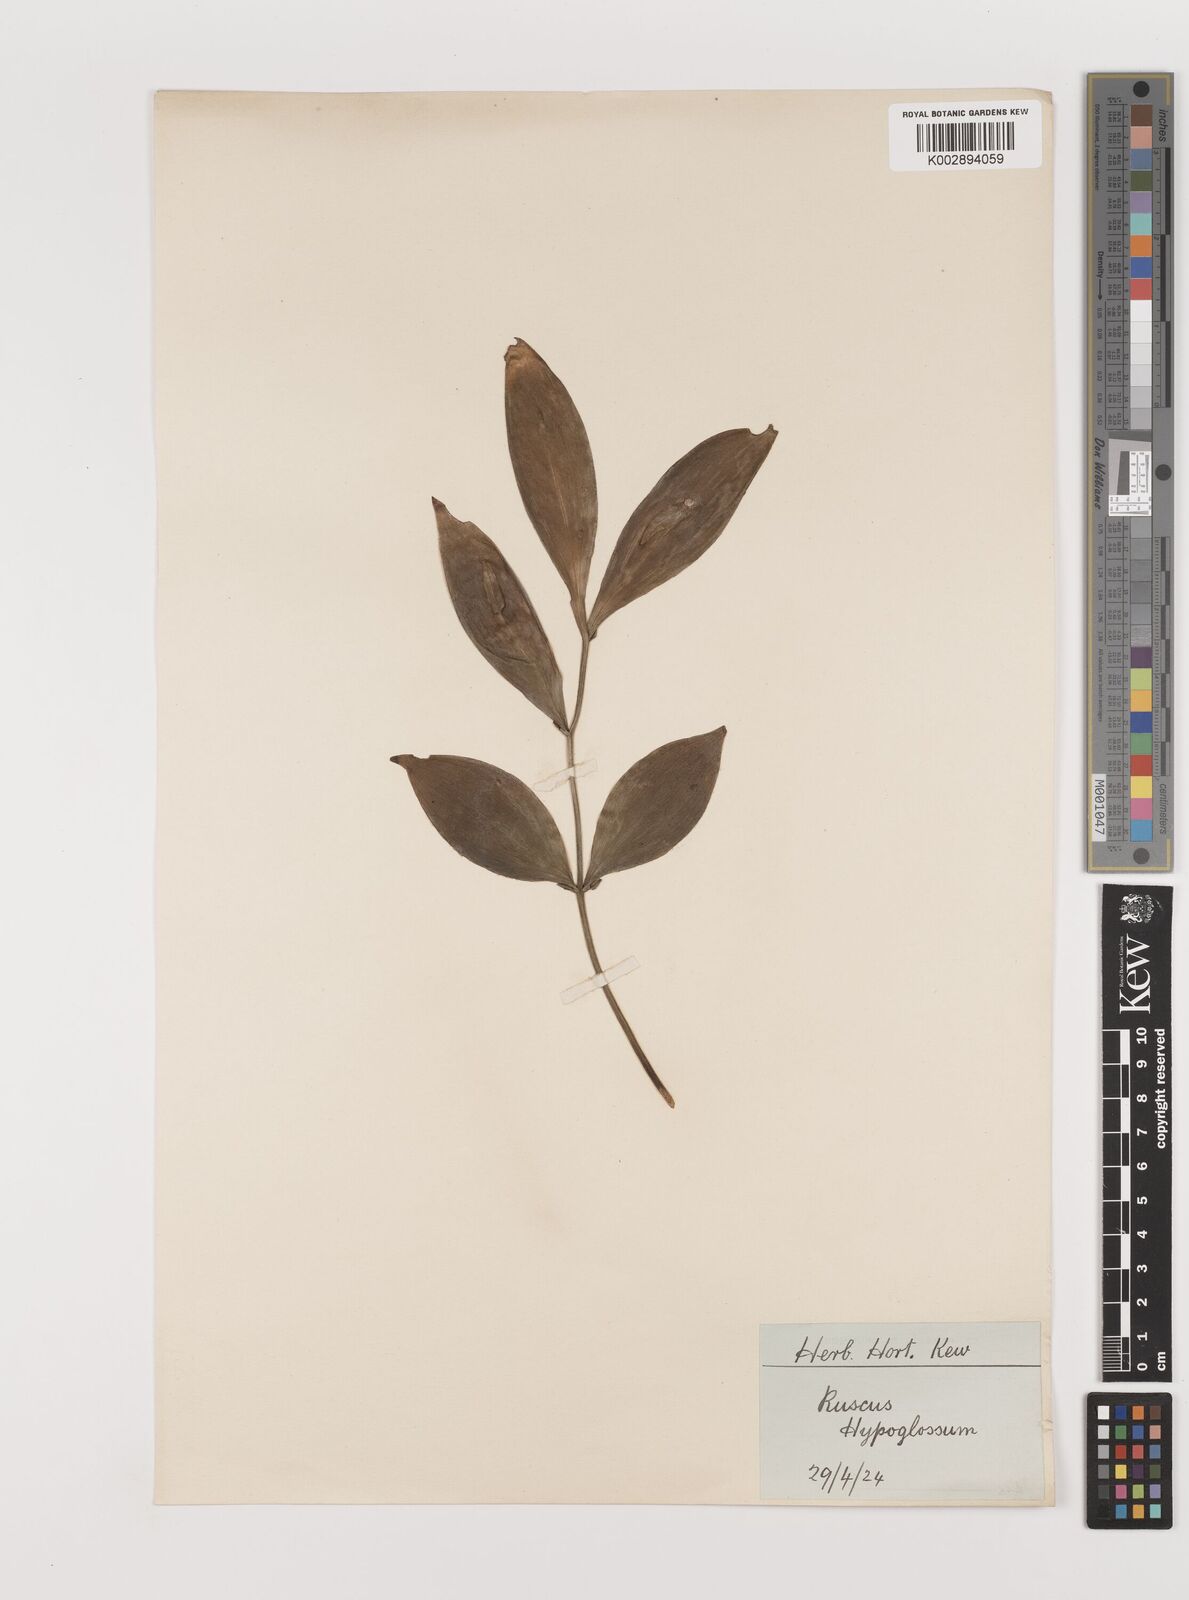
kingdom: Plantae
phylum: Tracheophyta
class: Liliopsida
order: Asparagales
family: Asparagaceae
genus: Ruscus
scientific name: Ruscus hypoglossum
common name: Spineless butcher's-broom
